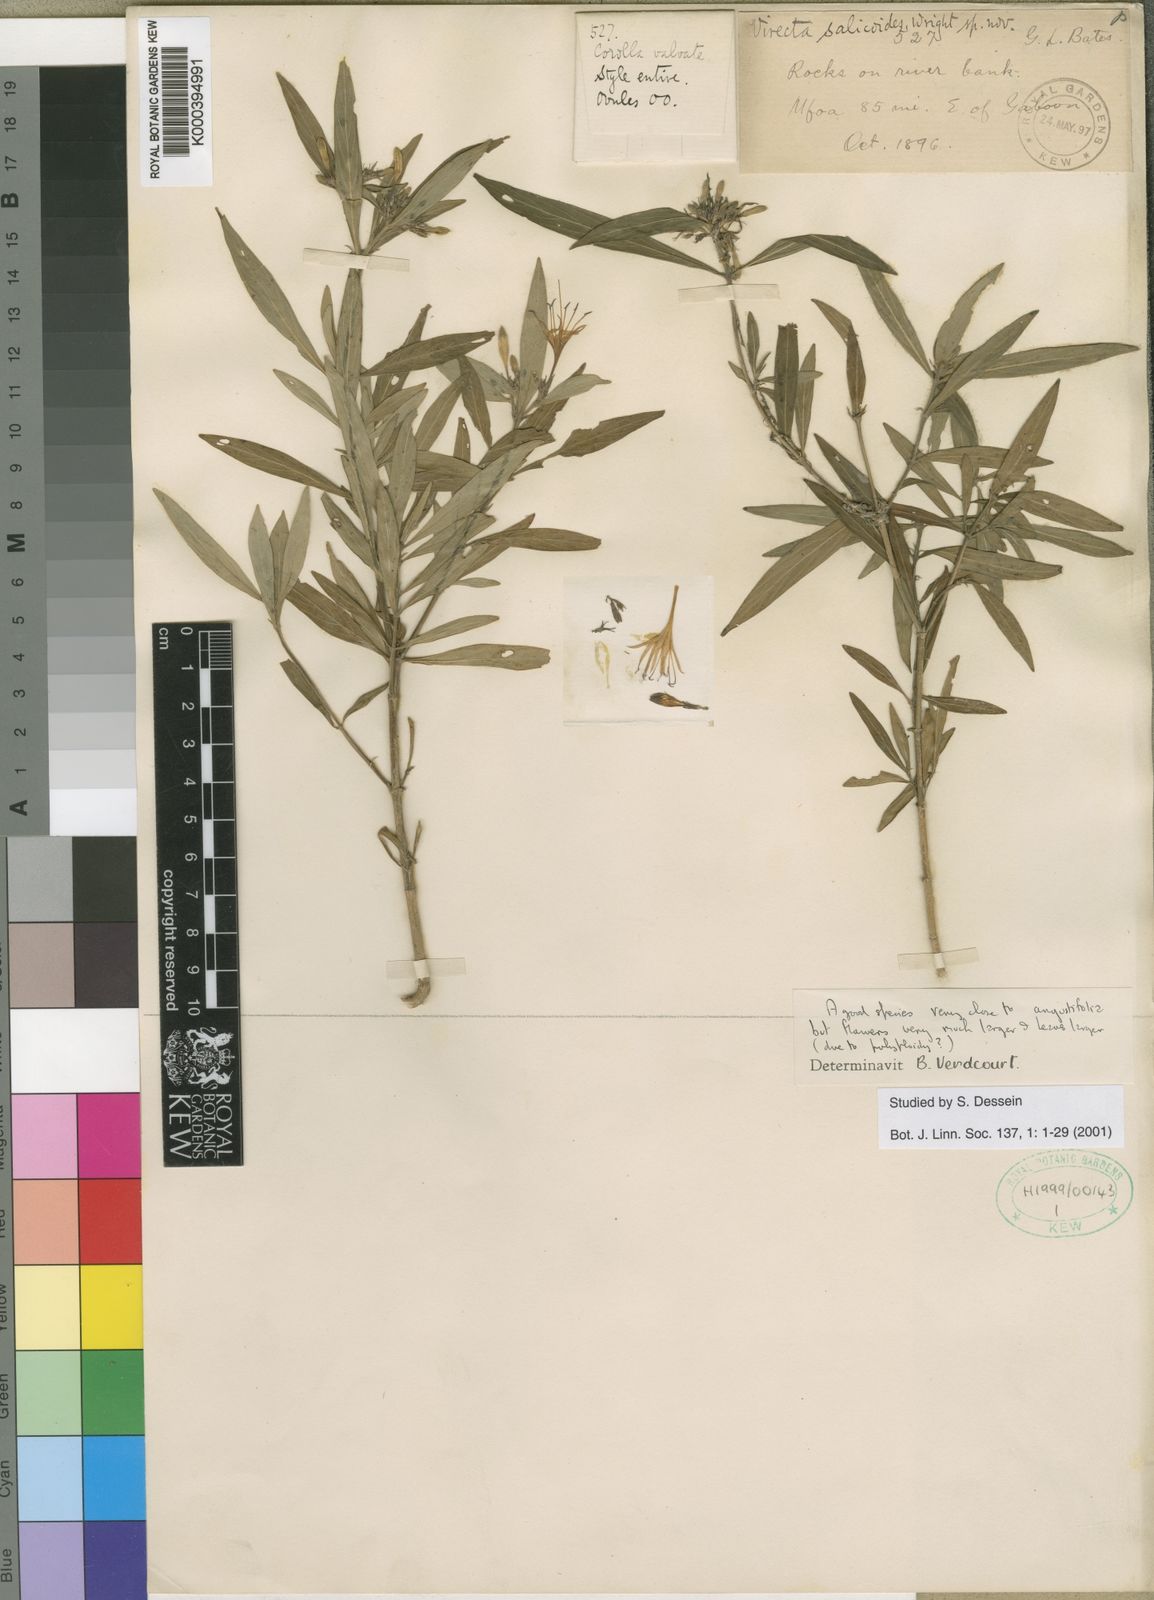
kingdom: Plantae
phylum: Tracheophyta
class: Magnoliopsida
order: Gentianales
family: Rubiaceae
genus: Virectaria
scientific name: Virectaria salicoides
